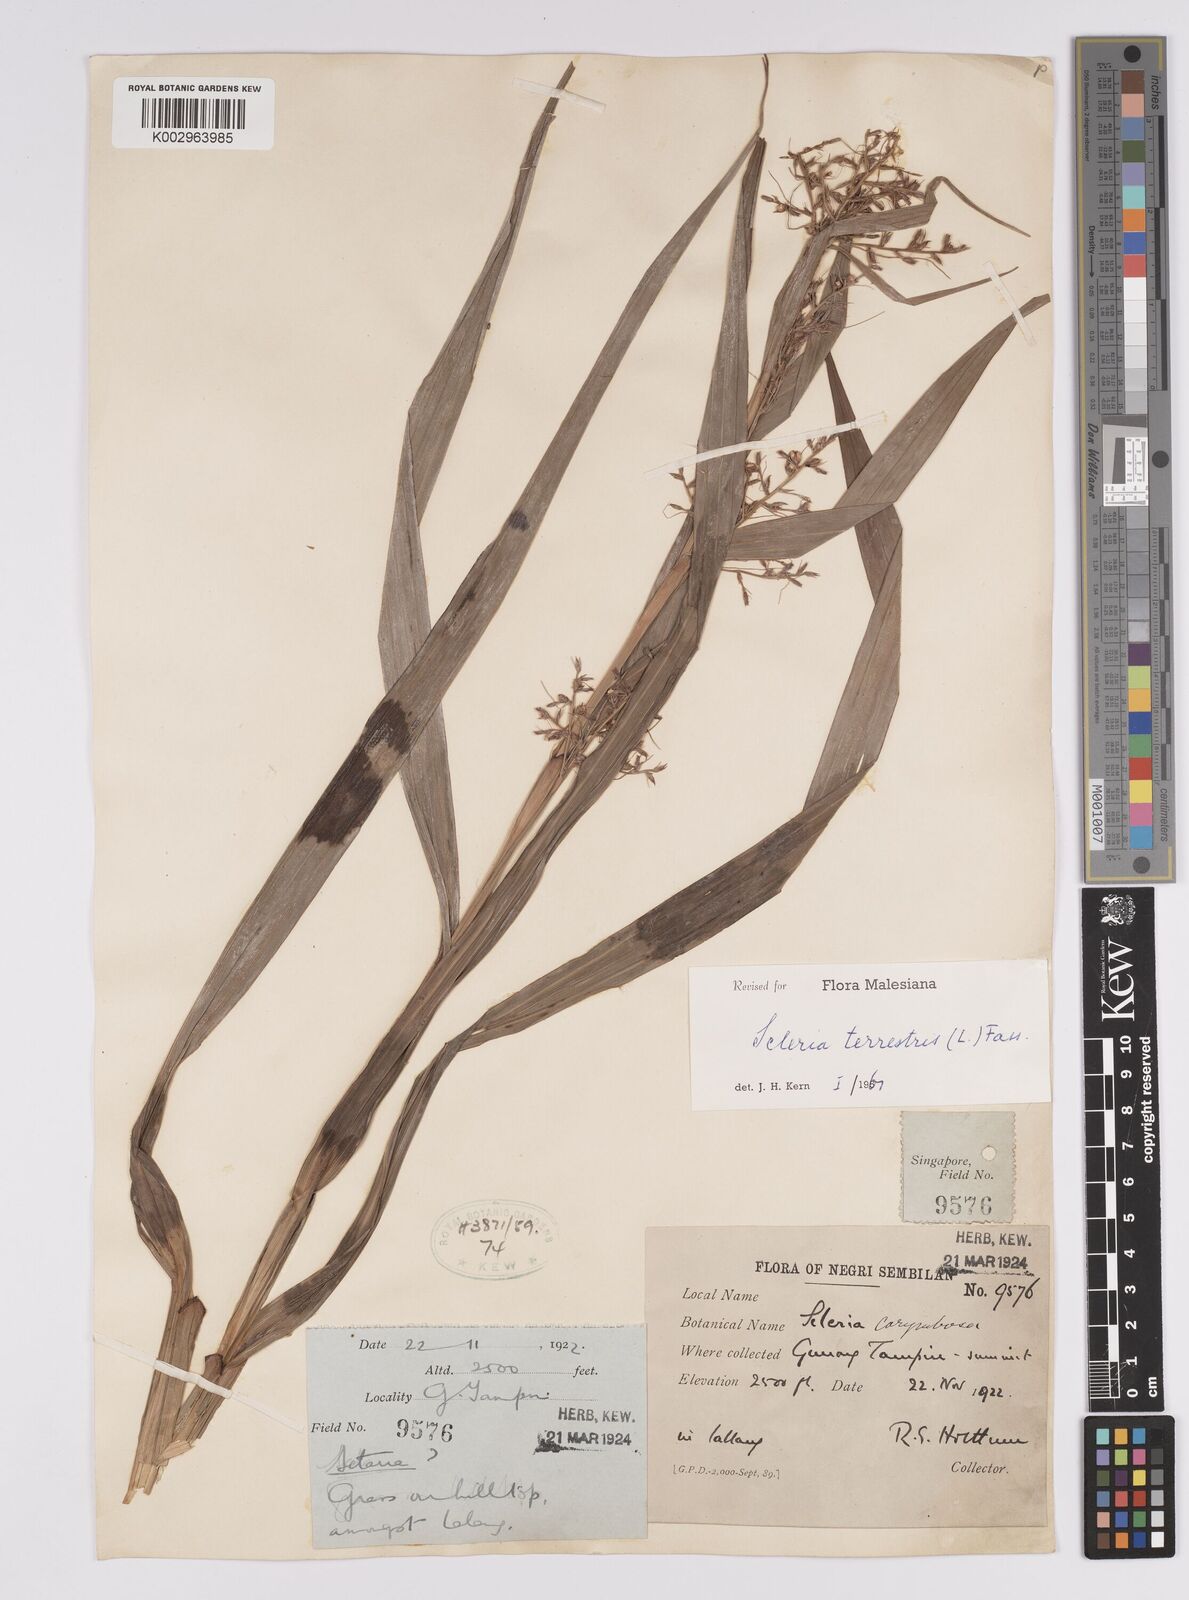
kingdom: Plantae
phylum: Tracheophyta
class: Liliopsida
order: Poales
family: Cyperaceae
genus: Scleria
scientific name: Scleria terrestris
